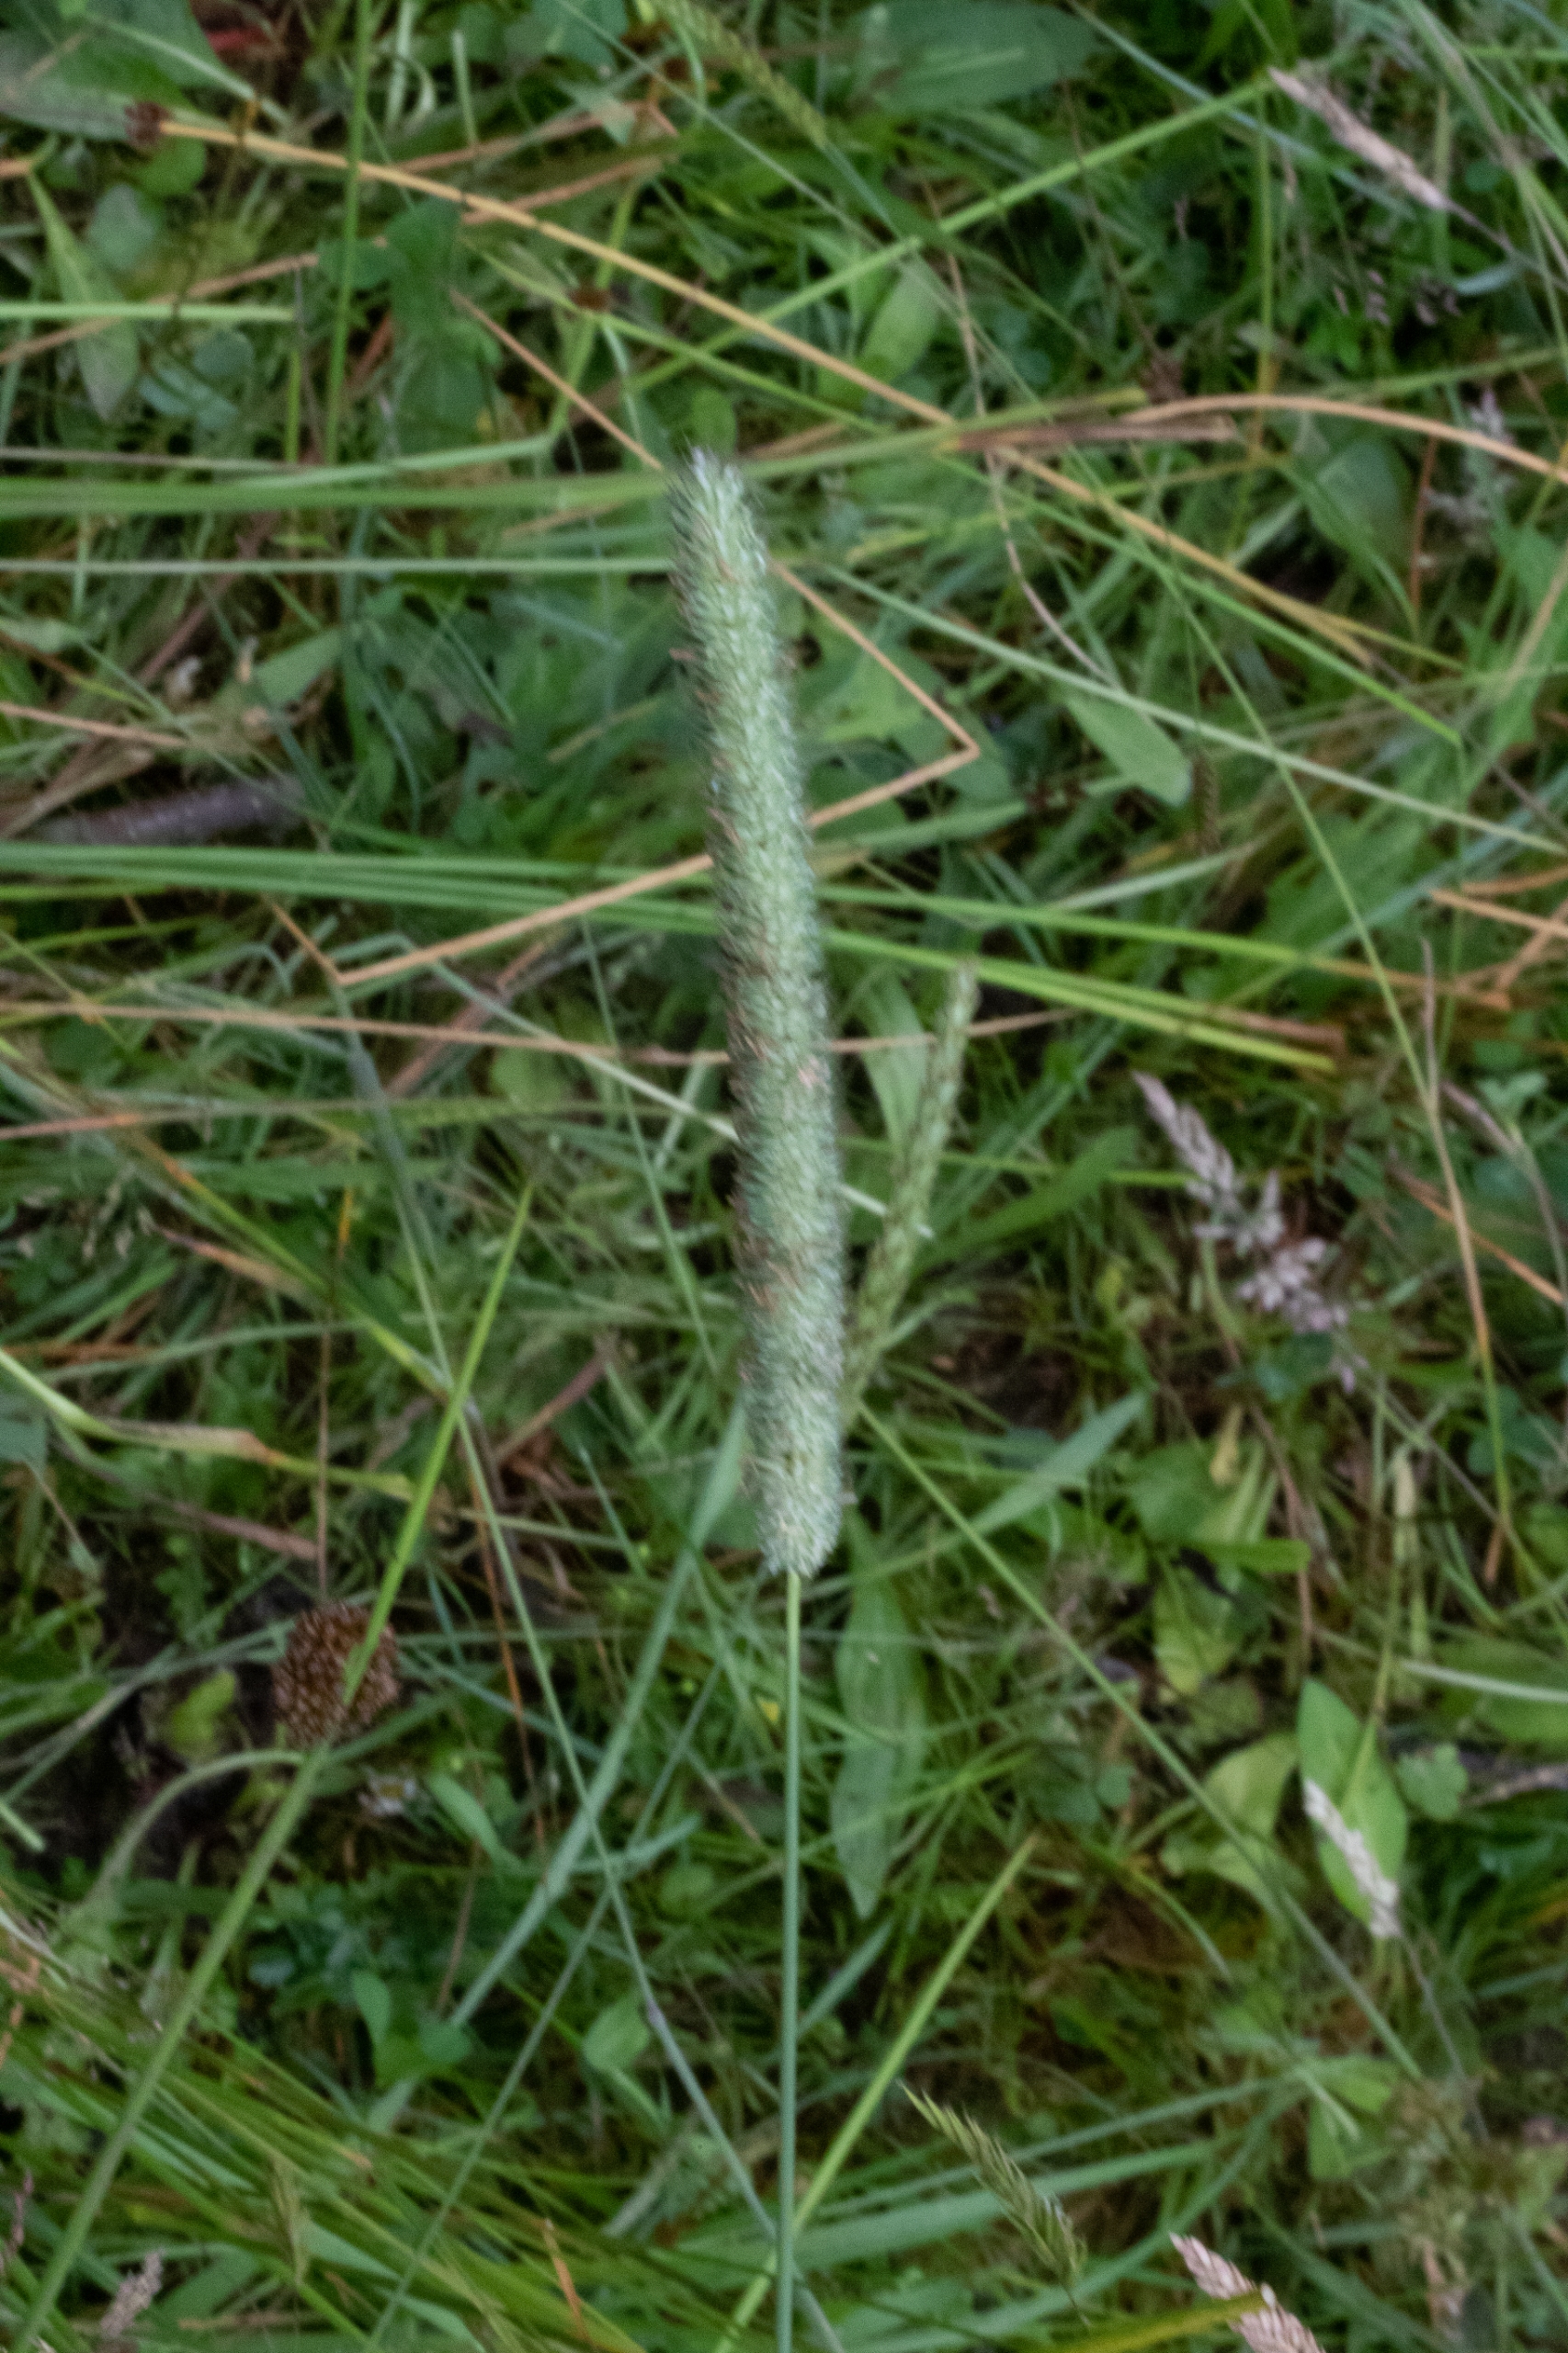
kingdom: Plantae
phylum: Tracheophyta
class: Liliopsida
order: Poales
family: Poaceae
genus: Phleum
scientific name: Phleum pratense
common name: Eng-rottehale
